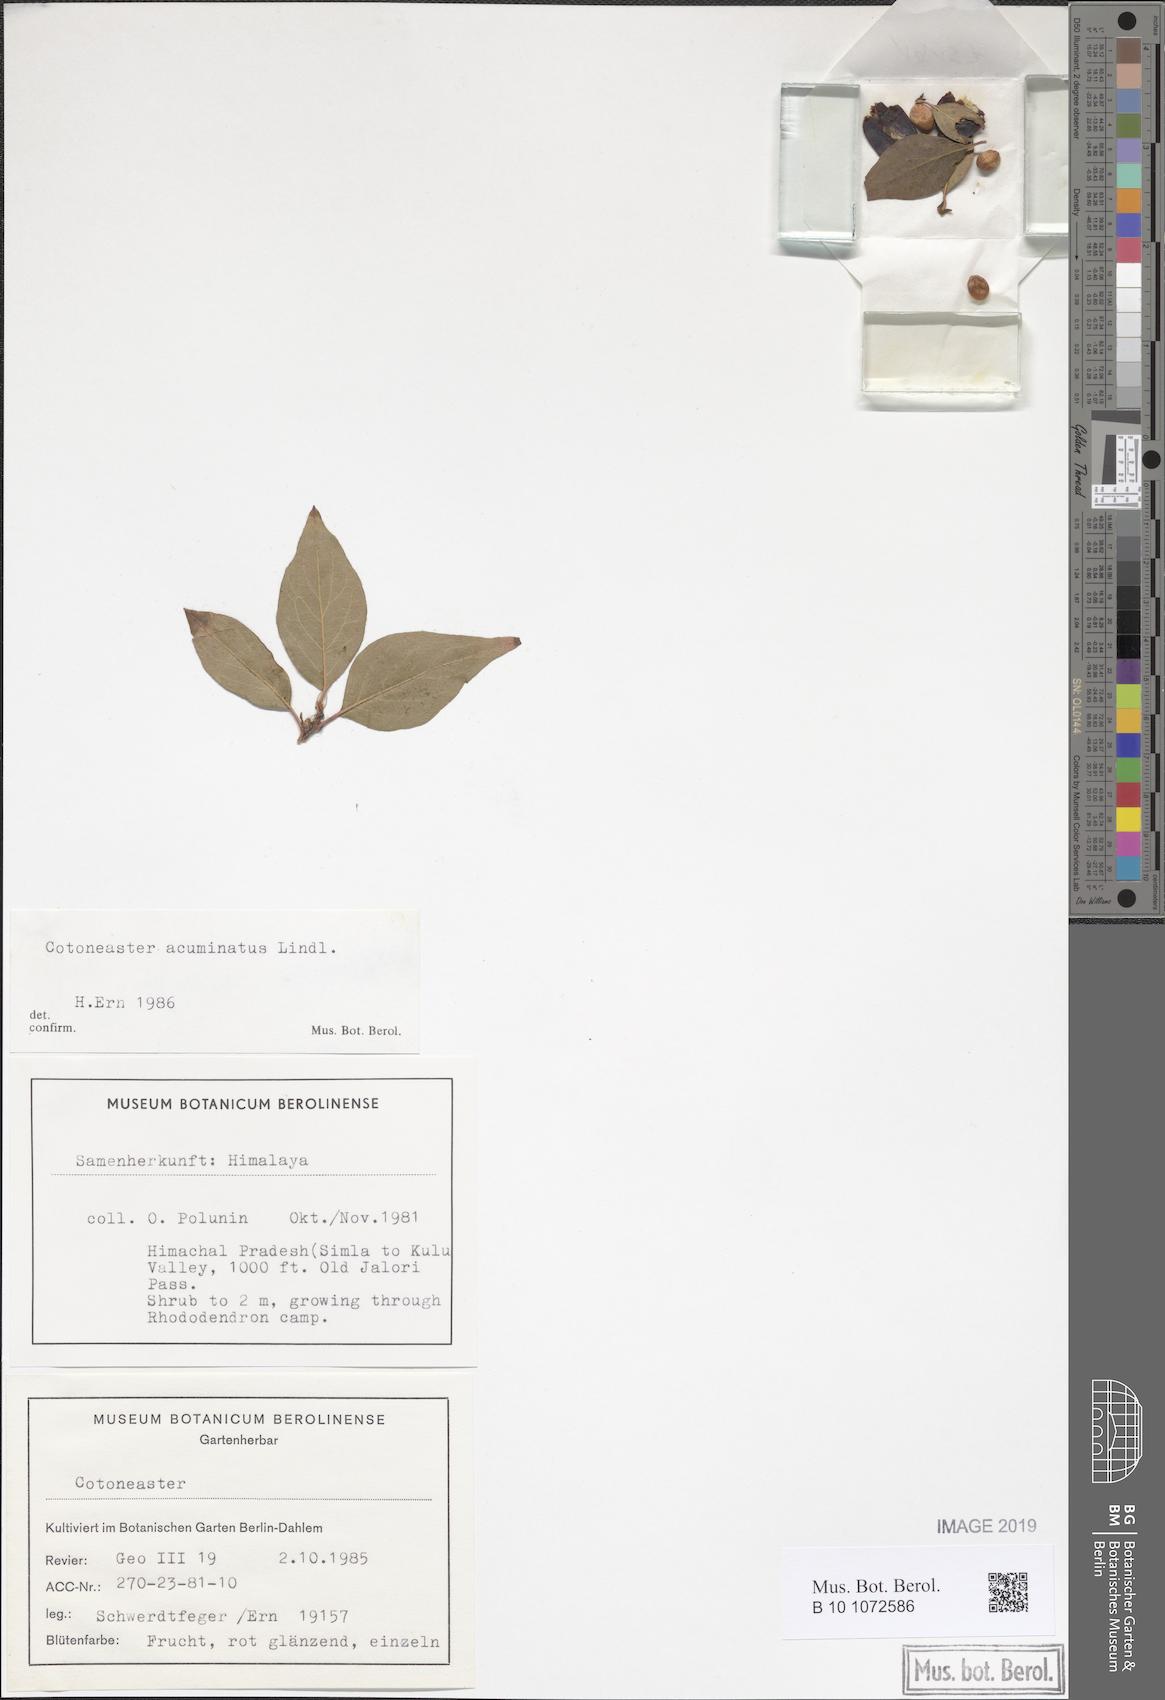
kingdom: Plantae
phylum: Tracheophyta
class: Magnoliopsida
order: Rosales
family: Rosaceae
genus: Cotoneaster
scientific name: Cotoneaster acuminatus
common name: Acuminate cotoneaster
